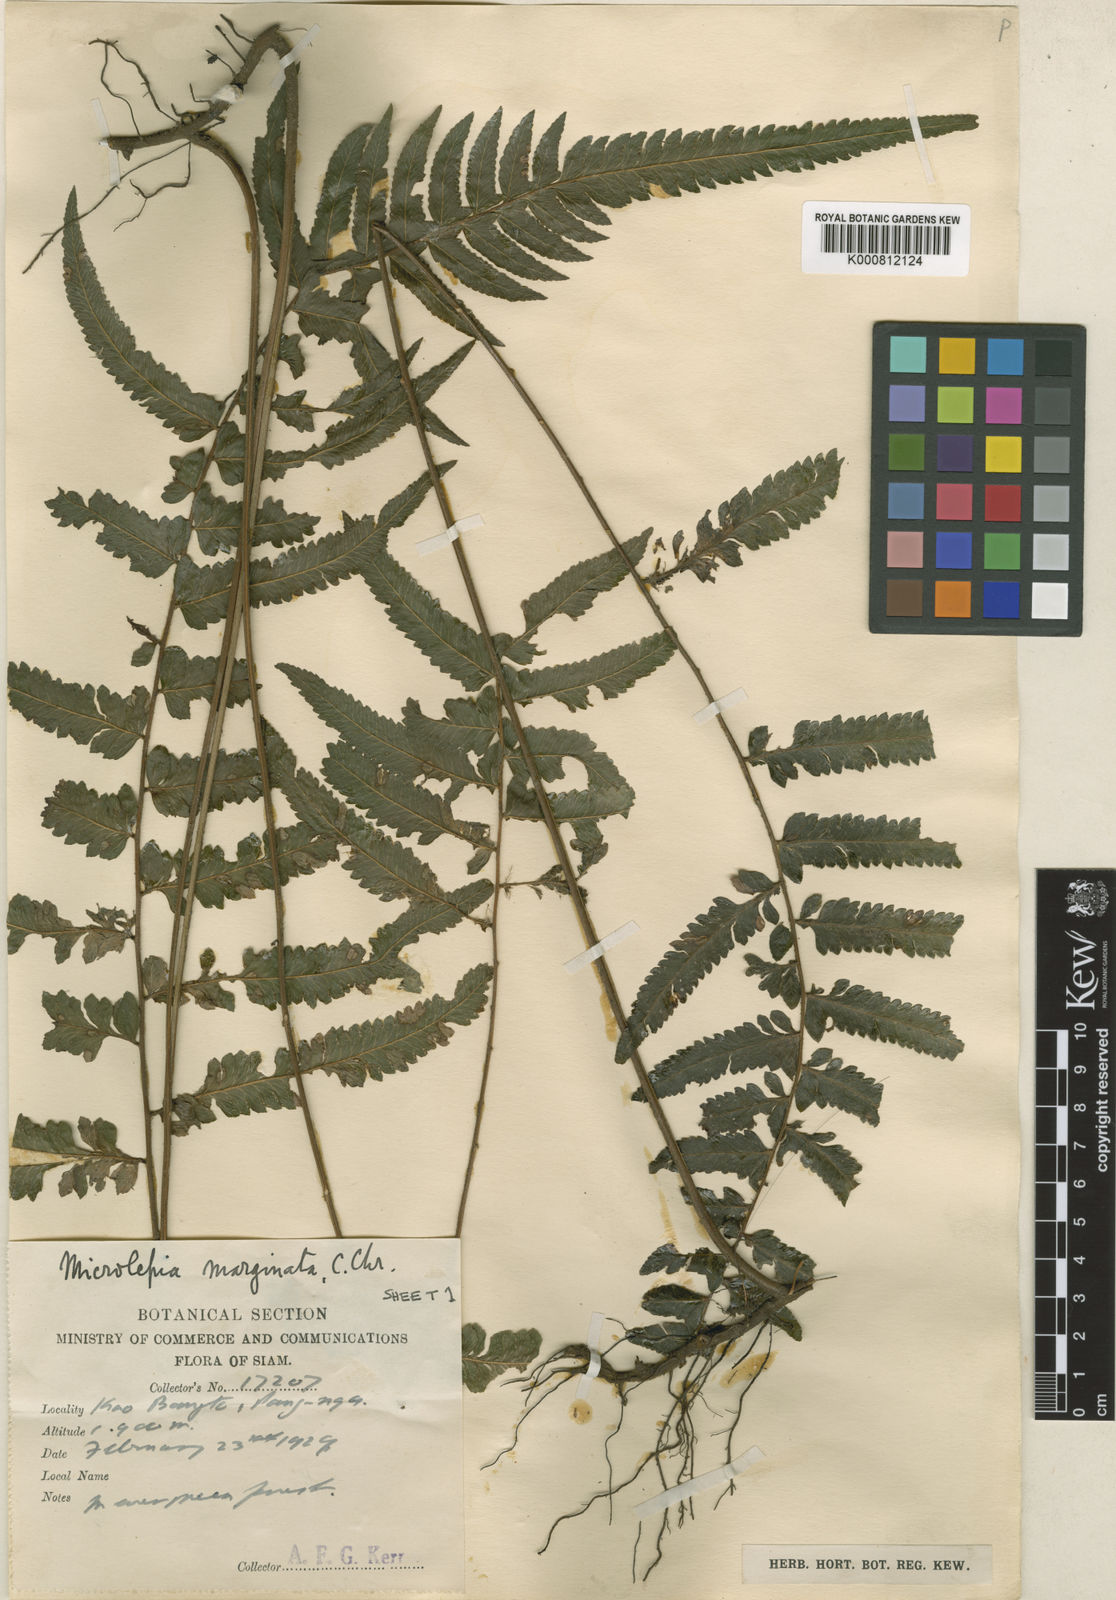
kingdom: Plantae
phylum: Tracheophyta
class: Polypodiopsida
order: Polypodiales
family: Dennstaedtiaceae
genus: Microlepia
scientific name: Microlepia bipinnata
